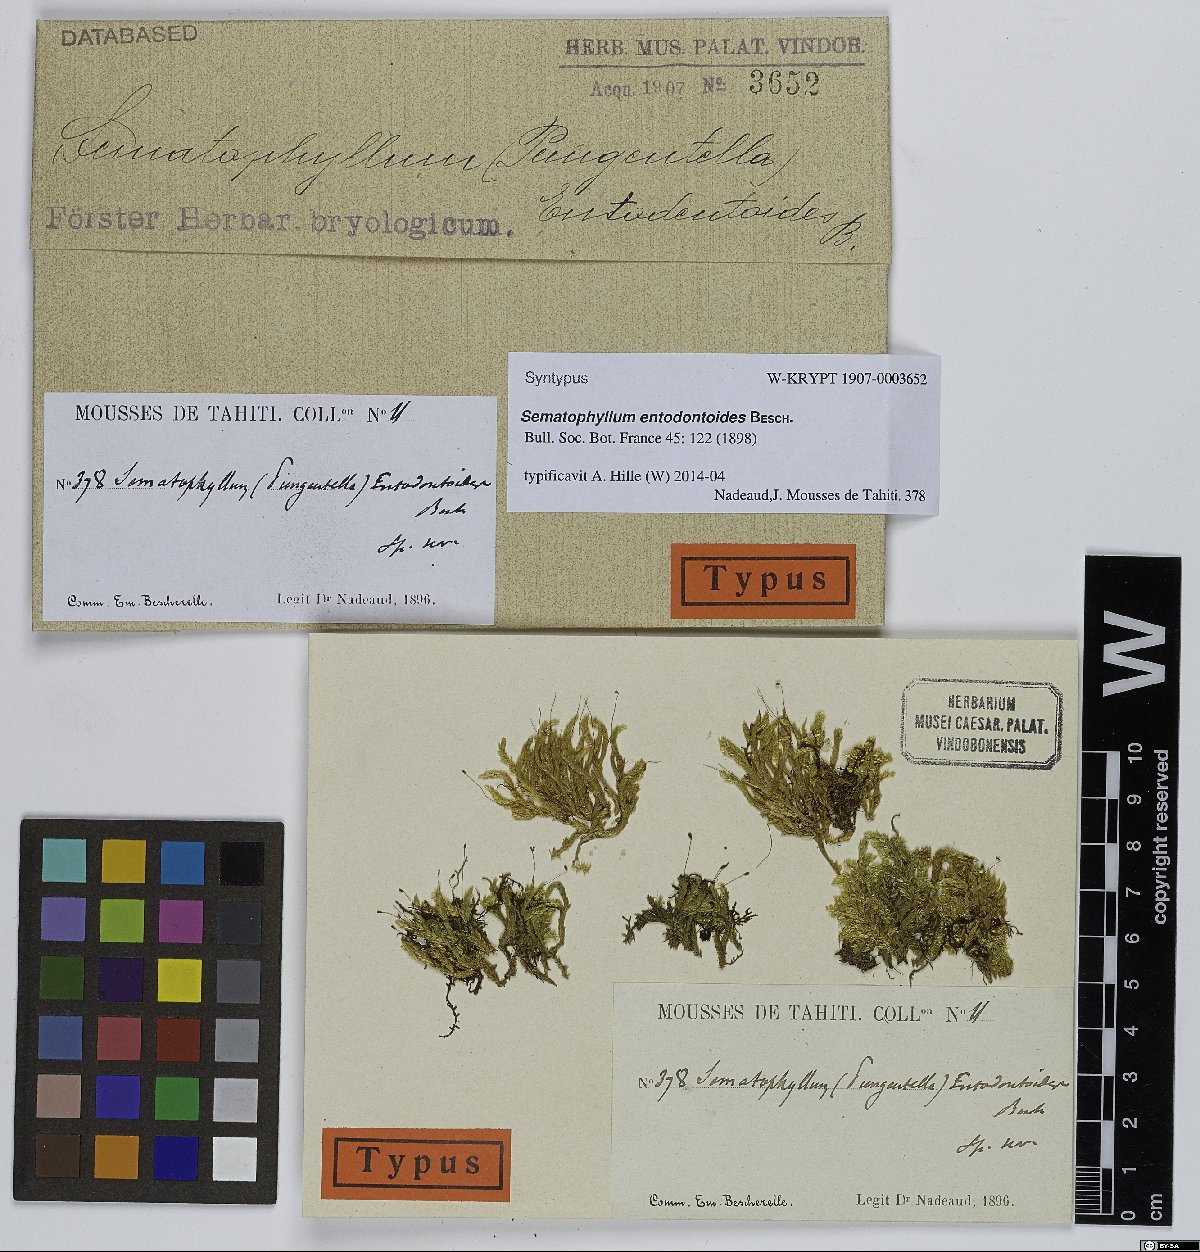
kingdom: Plantae
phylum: Bryophyta
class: Bryopsida
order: Hypnales
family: Sematophyllaceae
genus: Sematophyllum
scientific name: Sematophyllum entodontoides
